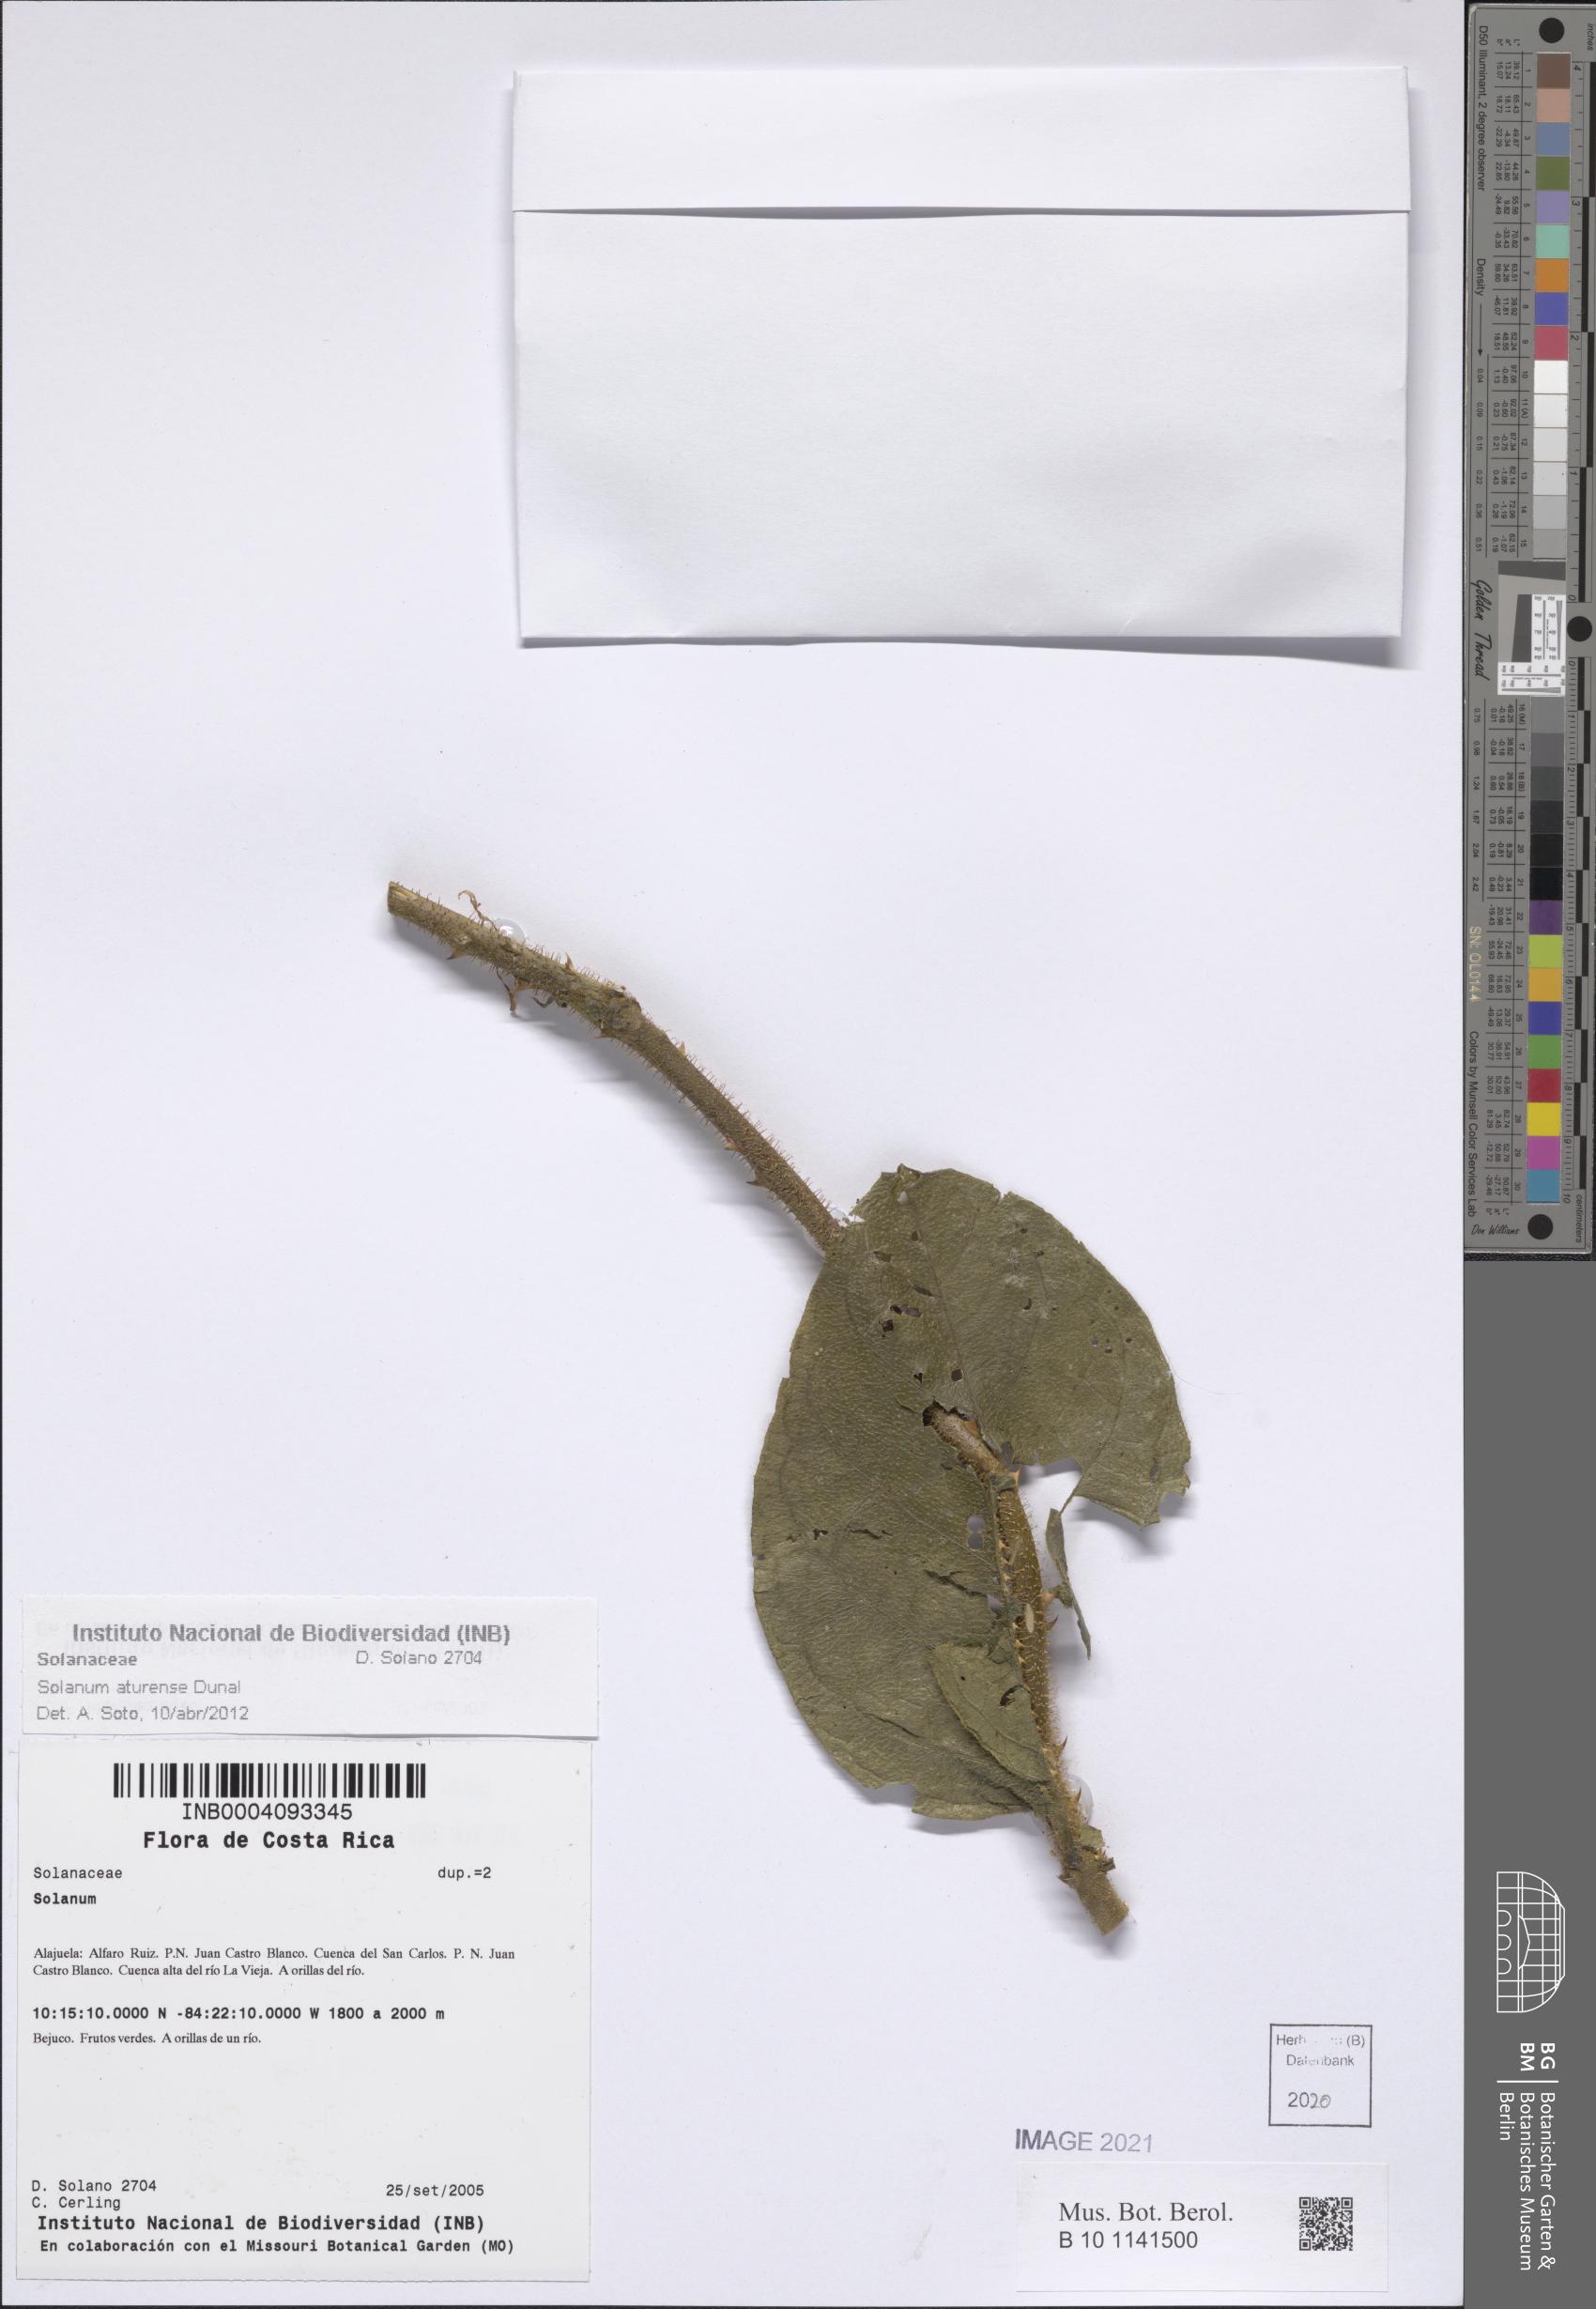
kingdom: Plantae
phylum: Tracheophyta
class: Magnoliopsida
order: Solanales
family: Solanaceae
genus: Solanum
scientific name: Solanum aturense
